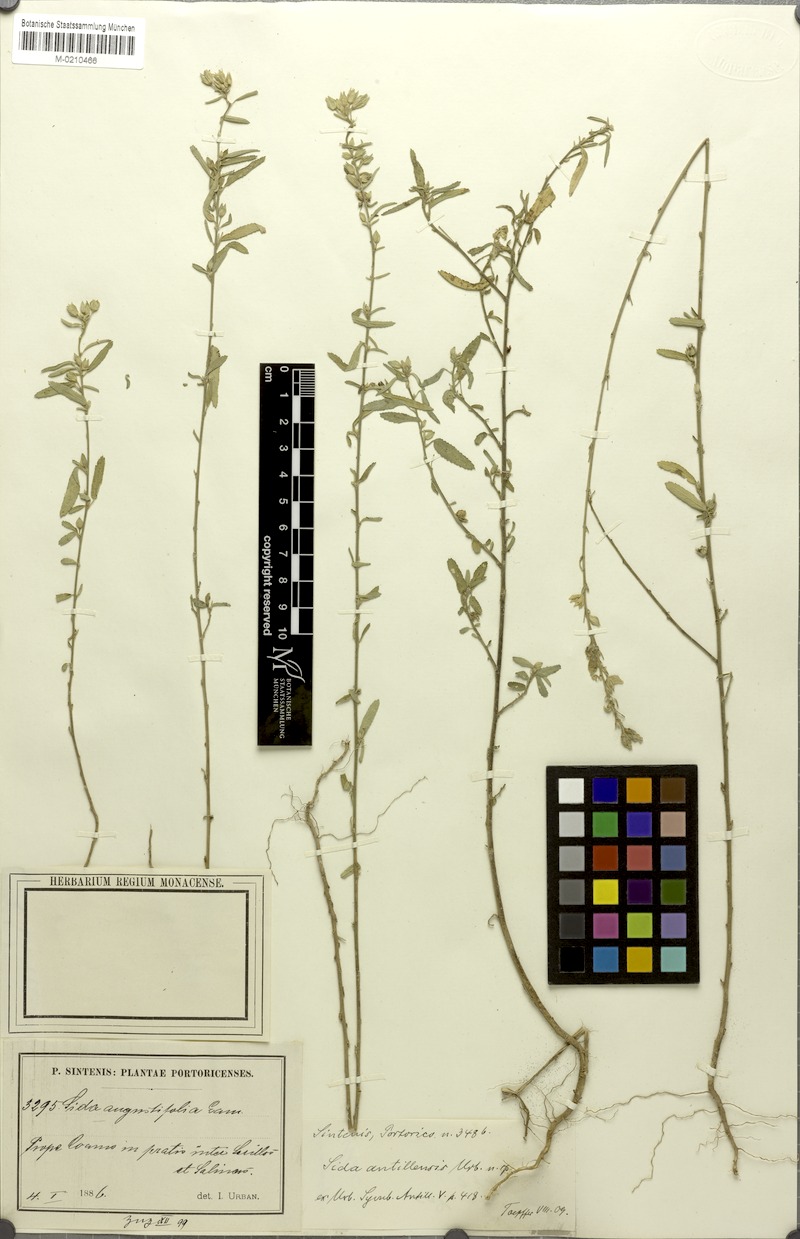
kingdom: Plantae
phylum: Tracheophyta
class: Magnoliopsida
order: Malvales
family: Malvaceae
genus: Sida
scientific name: Sida spinosa
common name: Prickly fanpetals
